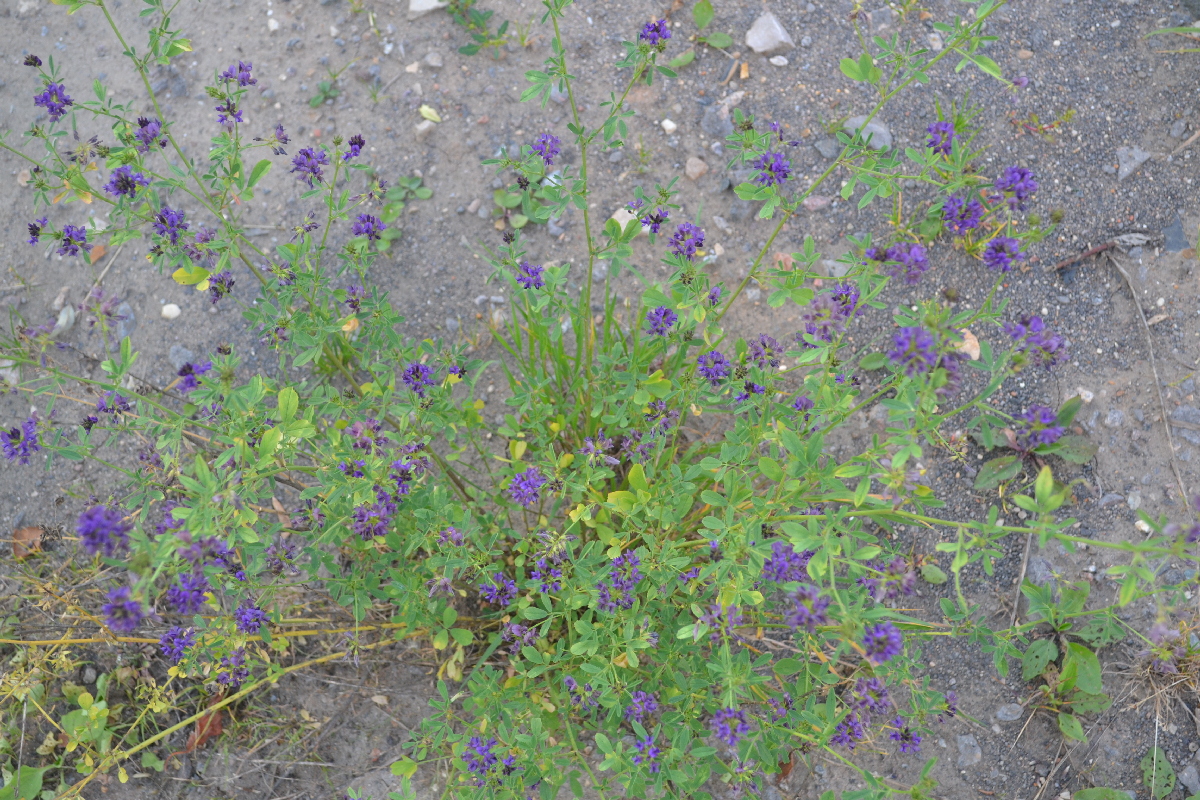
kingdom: Plantae
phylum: Tracheophyta
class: Magnoliopsida
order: Fabales
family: Fabaceae
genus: Medicago
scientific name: Medicago sativa
